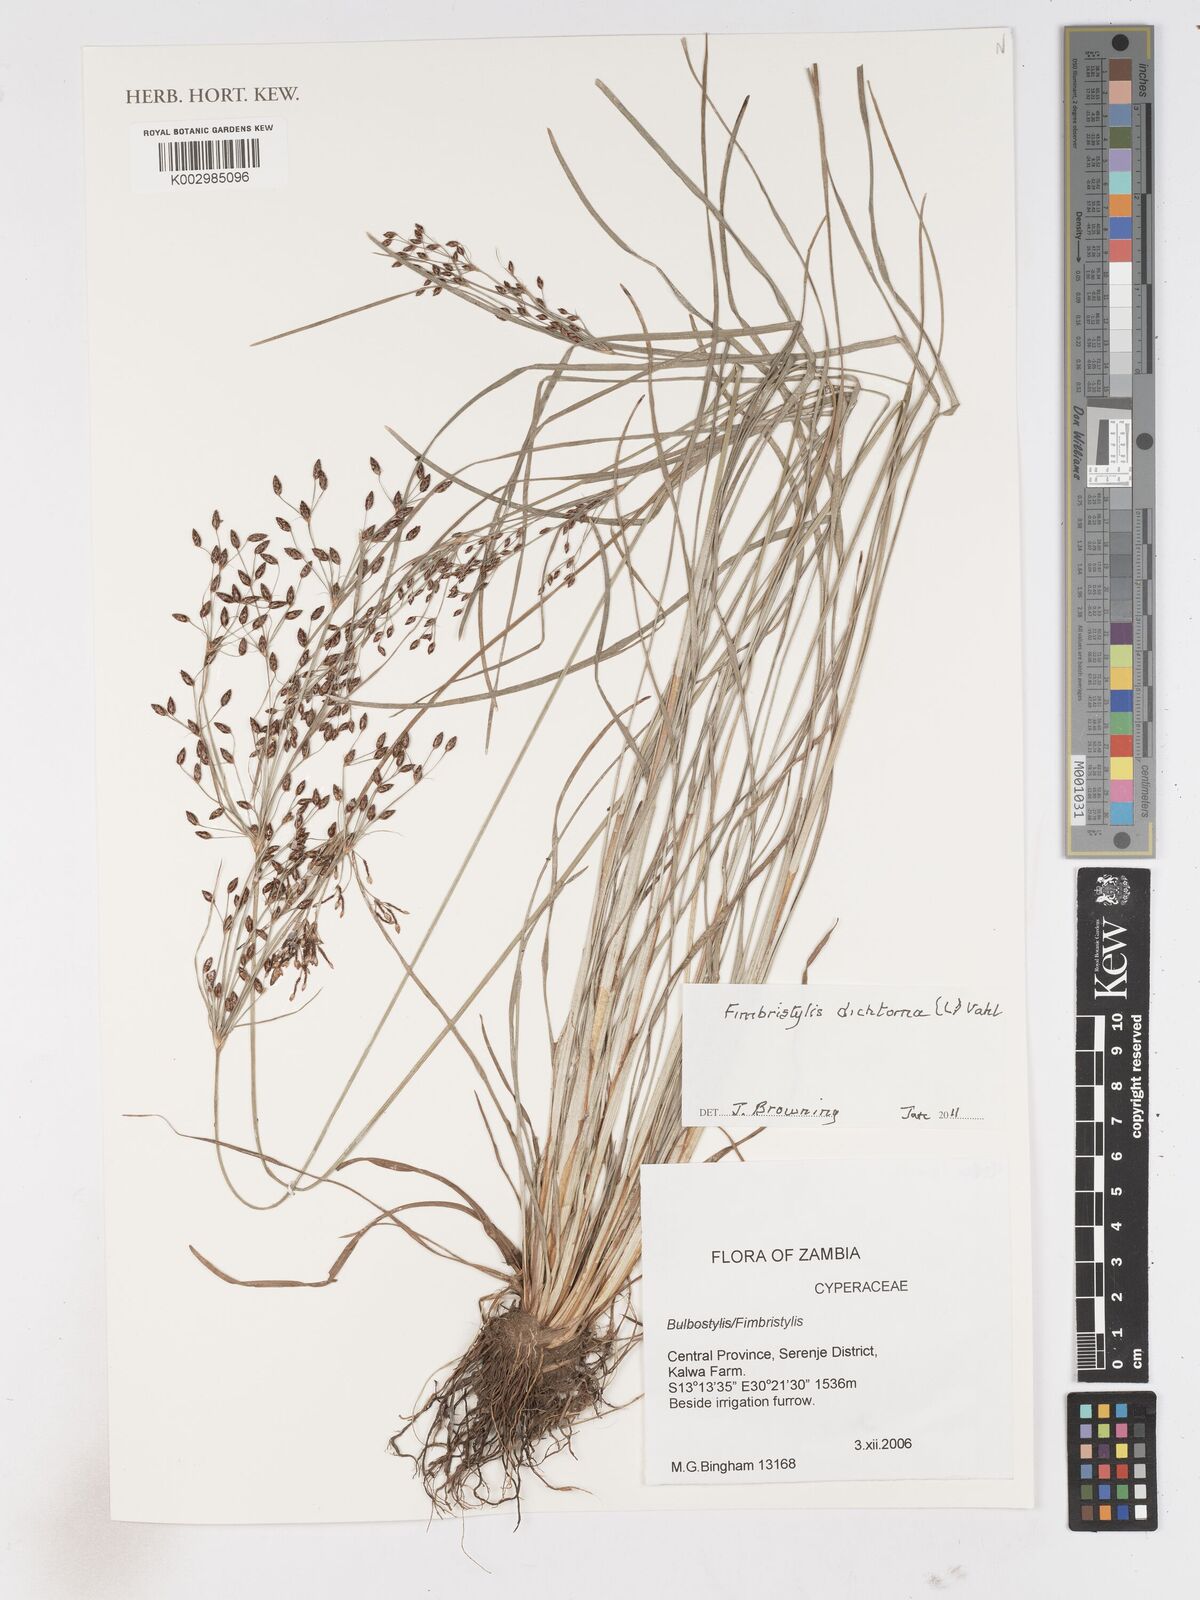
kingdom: Plantae
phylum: Tracheophyta
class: Liliopsida
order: Poales
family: Cyperaceae
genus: Fimbristylis
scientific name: Fimbristylis dichotoma
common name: Forked fimbry
